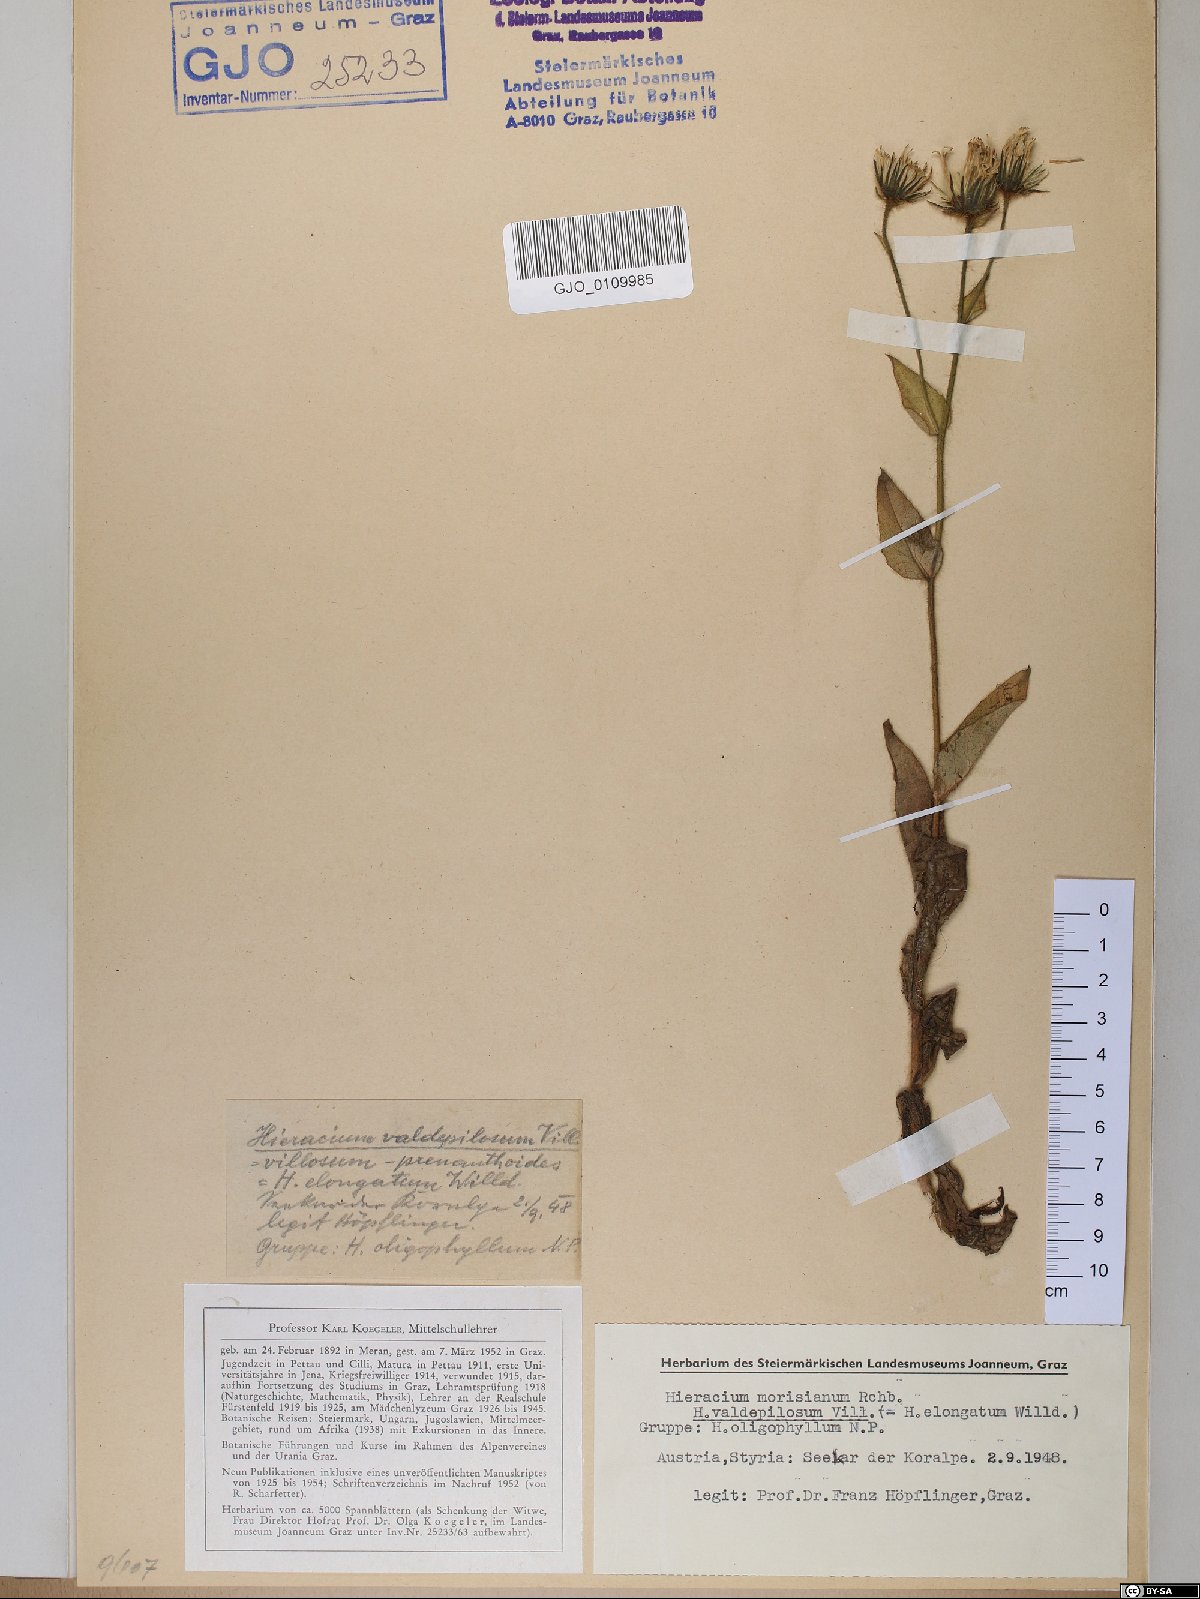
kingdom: Plantae
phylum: Tracheophyta
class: Magnoliopsida
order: Asterales
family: Asteraceae
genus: Hieracium
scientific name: Hieracium valdepilosum
